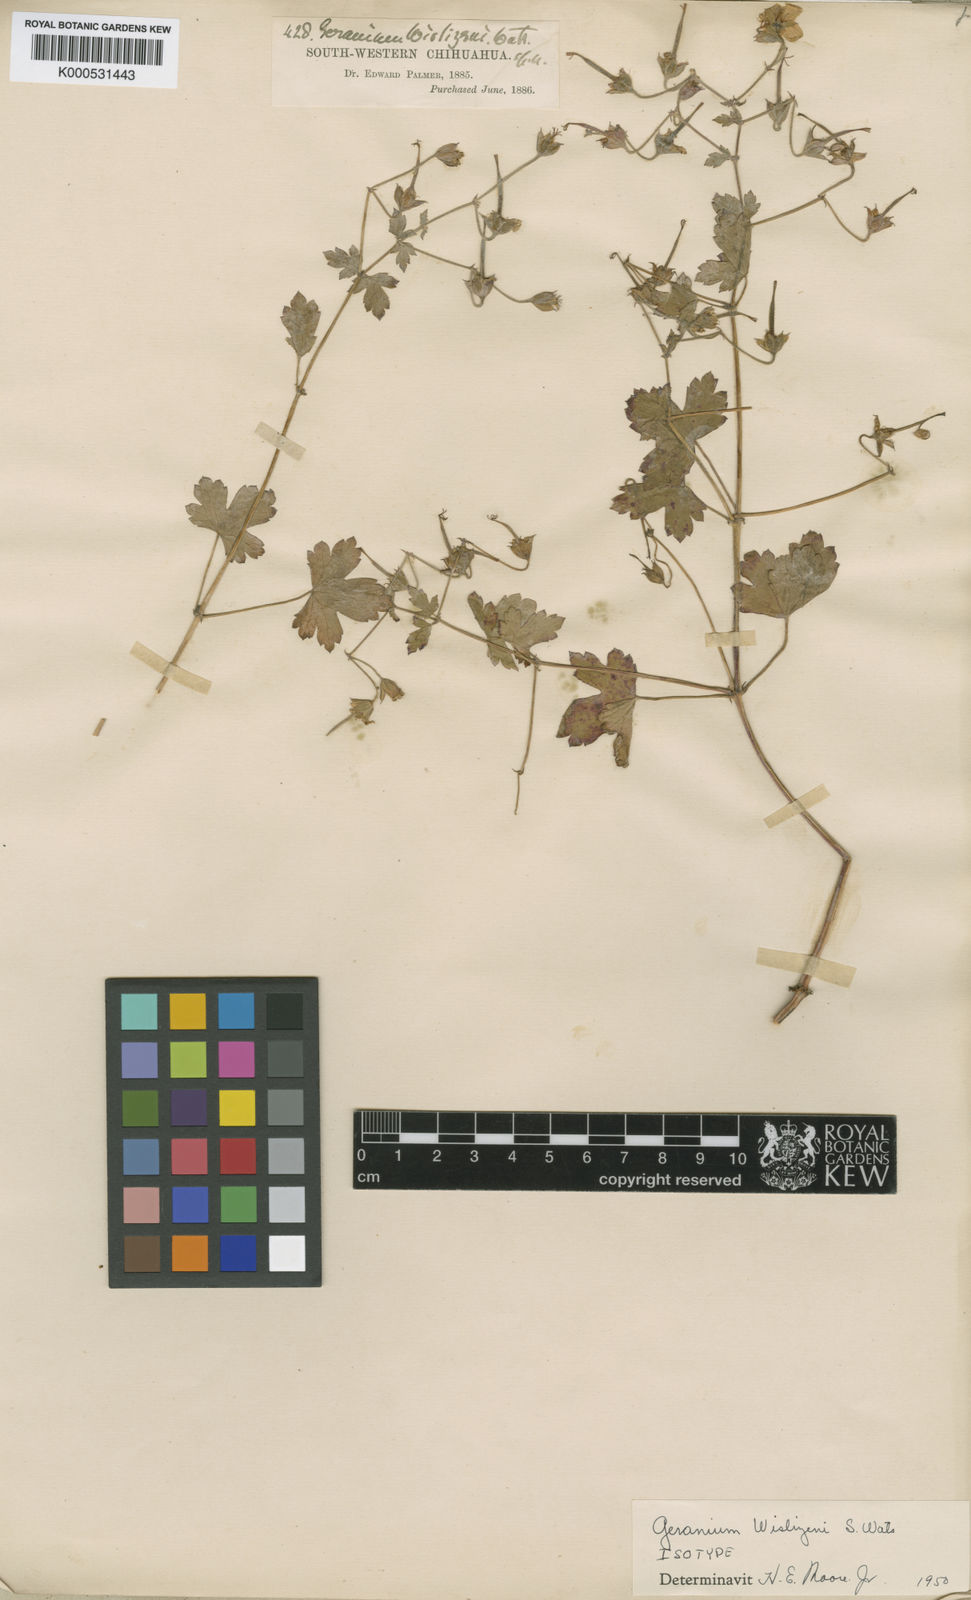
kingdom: Plantae
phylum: Tracheophyta
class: Magnoliopsida
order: Geraniales
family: Geraniaceae
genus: Geranium
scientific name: Geranium wislizeni
